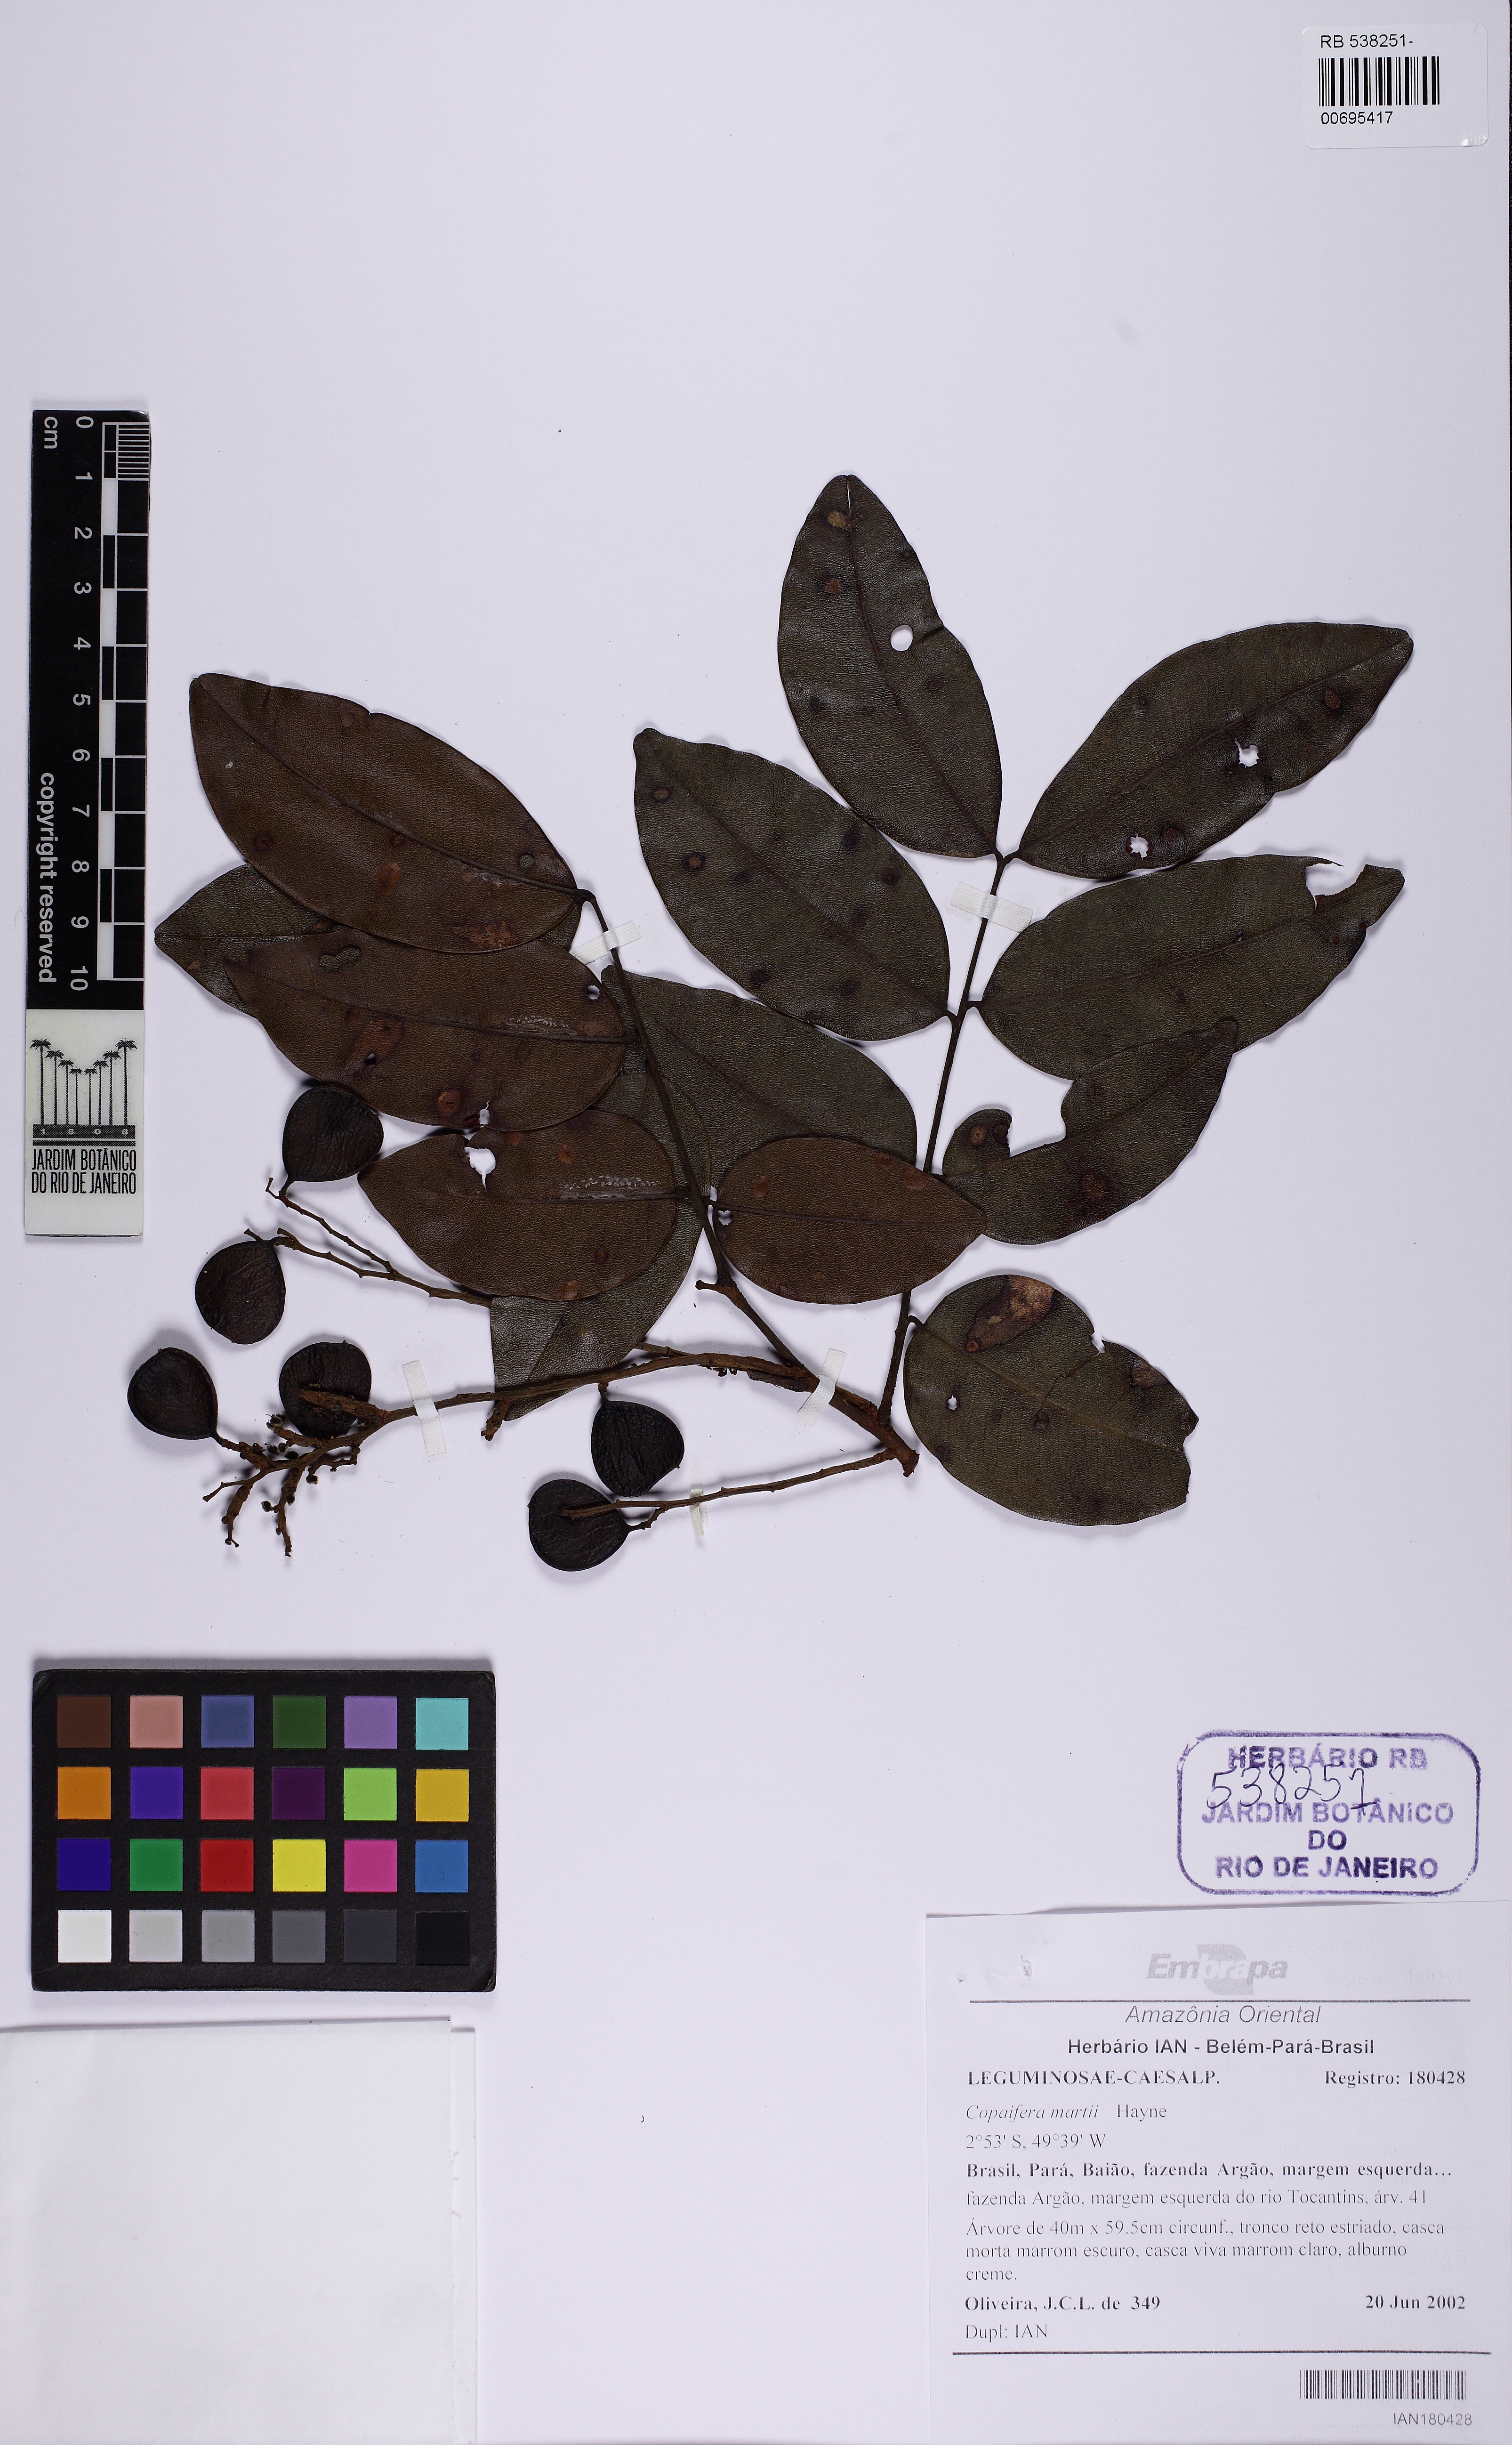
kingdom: Plantae
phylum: Tracheophyta
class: Magnoliopsida
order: Fabales
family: Fabaceae
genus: Copaifera
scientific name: Copaifera martii
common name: Copaiba
